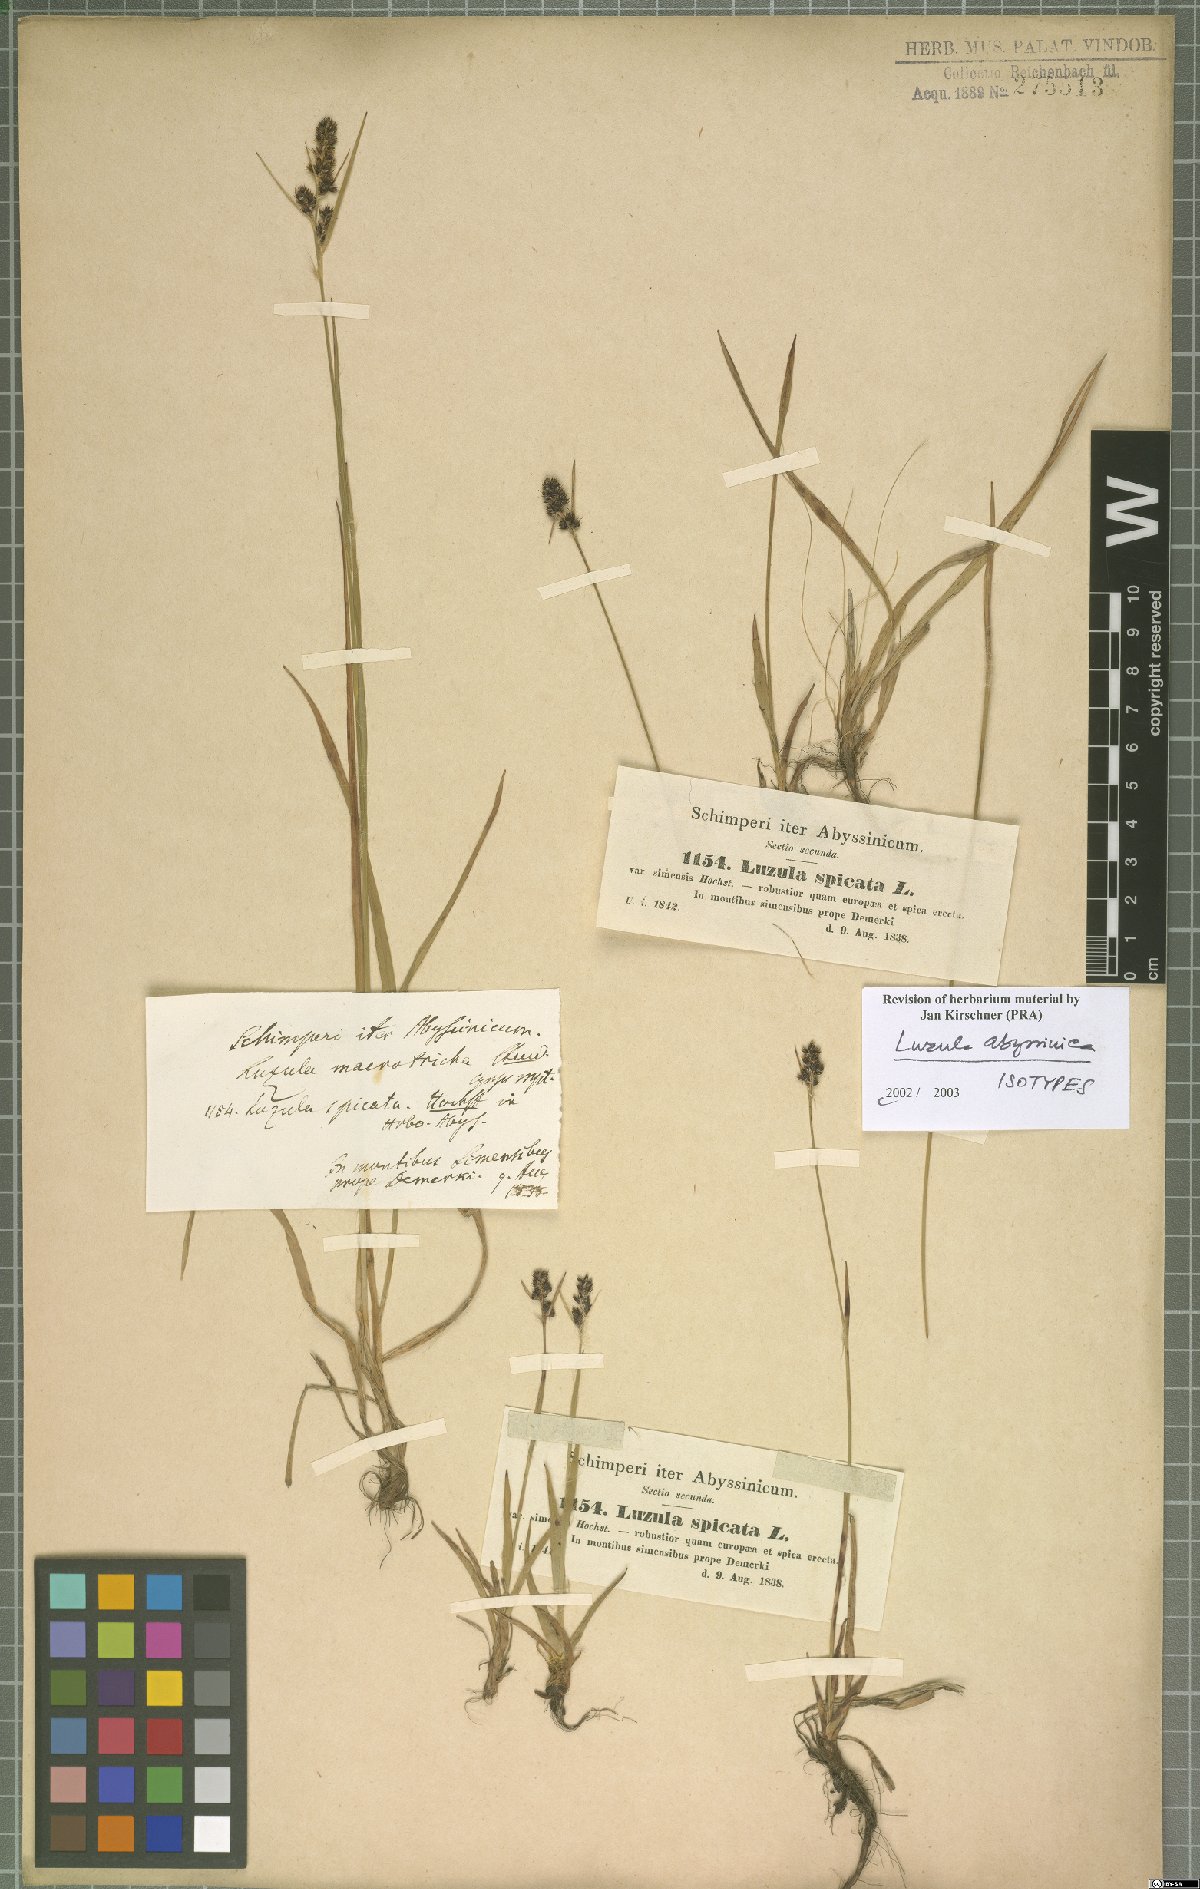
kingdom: Plantae
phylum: Tracheophyta
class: Liliopsida
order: Poales
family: Juncaceae
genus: Luzula
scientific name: Luzula abyssinica
